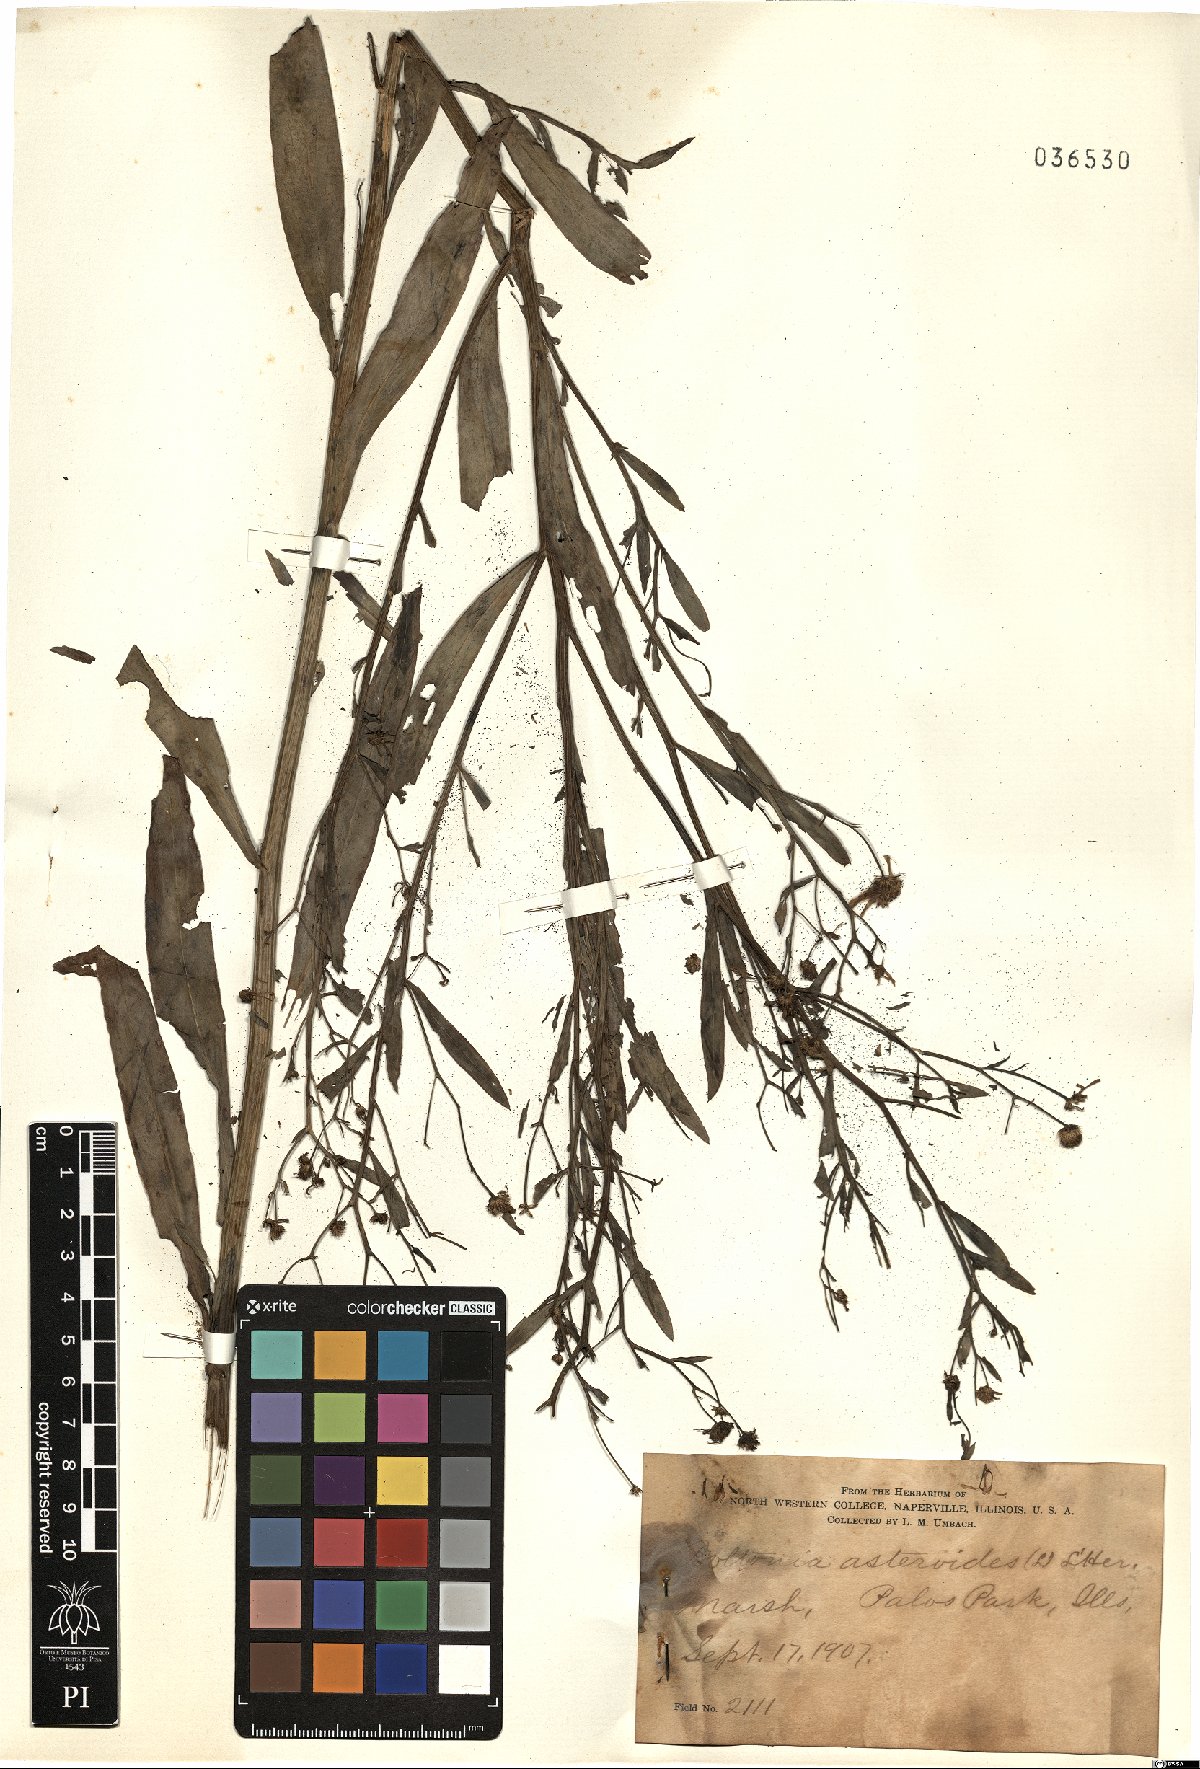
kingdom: Plantae
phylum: Tracheophyta
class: Magnoliopsida
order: Asterales
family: Asteraceae
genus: Boltonia
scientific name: Boltonia asteroides
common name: False chamomile
